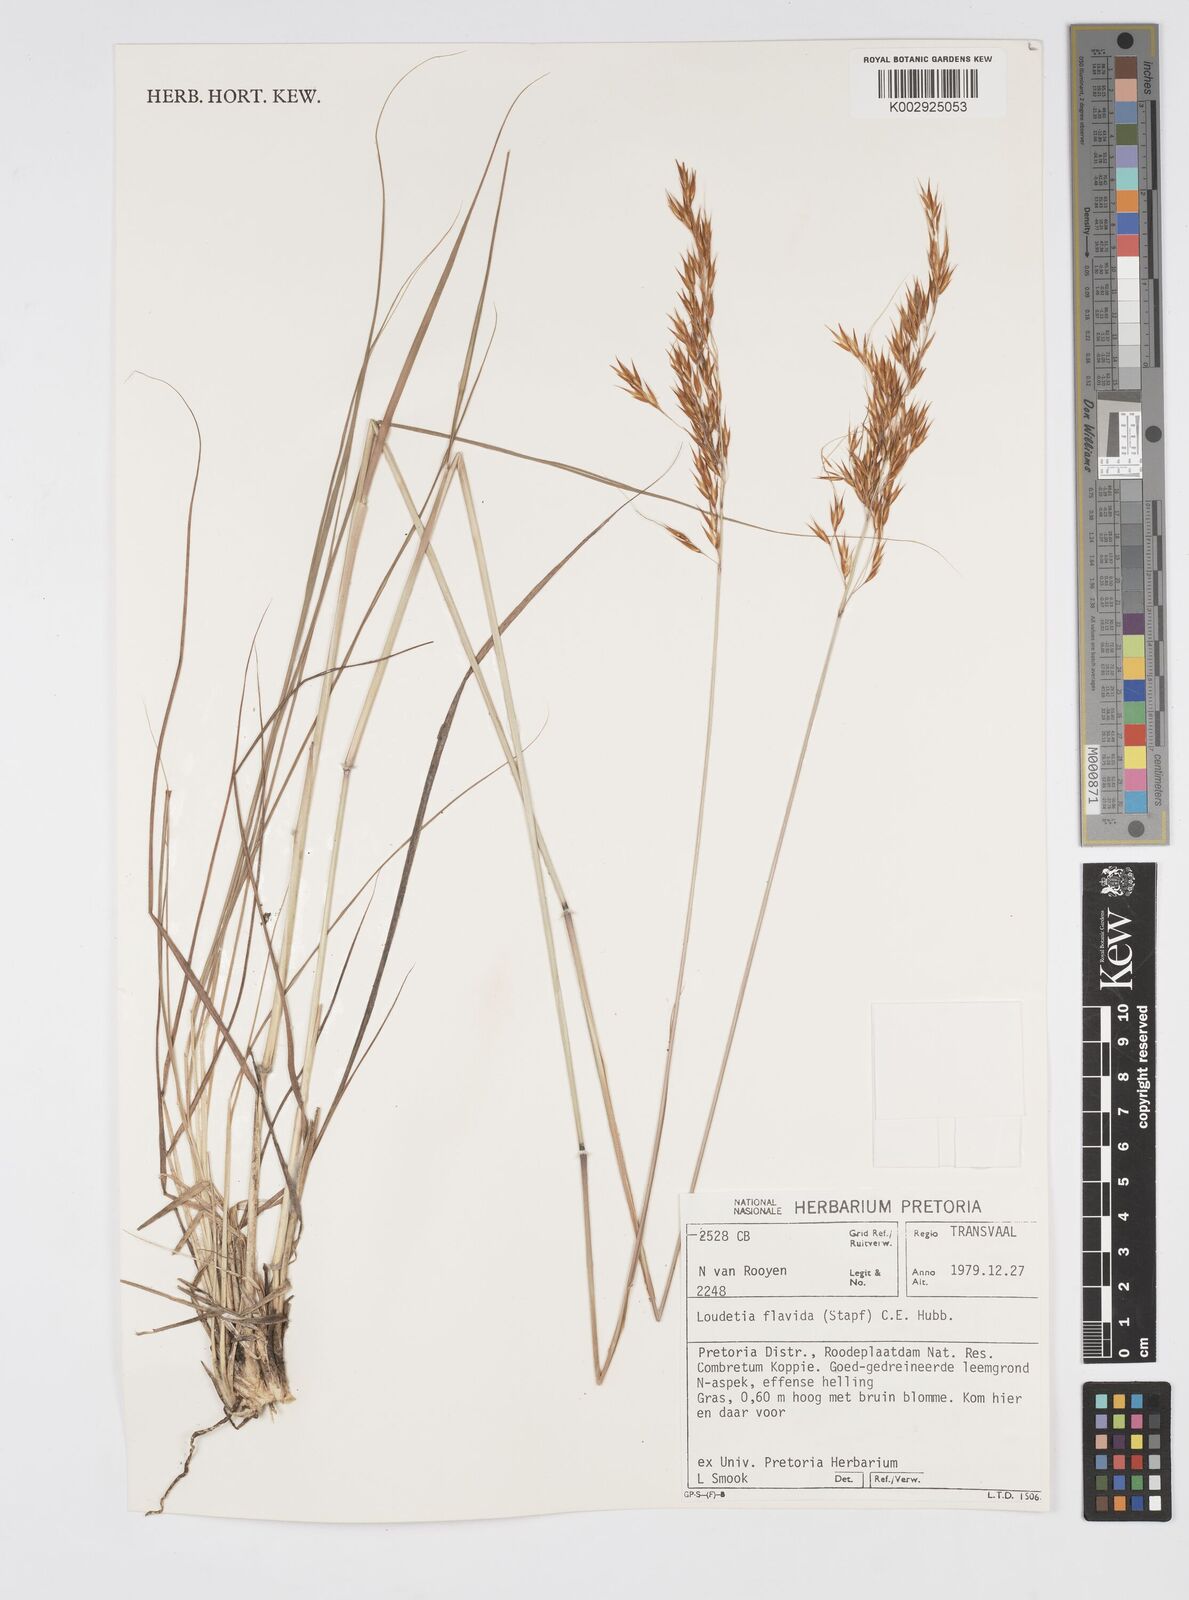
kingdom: Plantae
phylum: Tracheophyta
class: Liliopsida
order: Poales
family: Poaceae
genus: Loudetia
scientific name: Loudetia flavida
